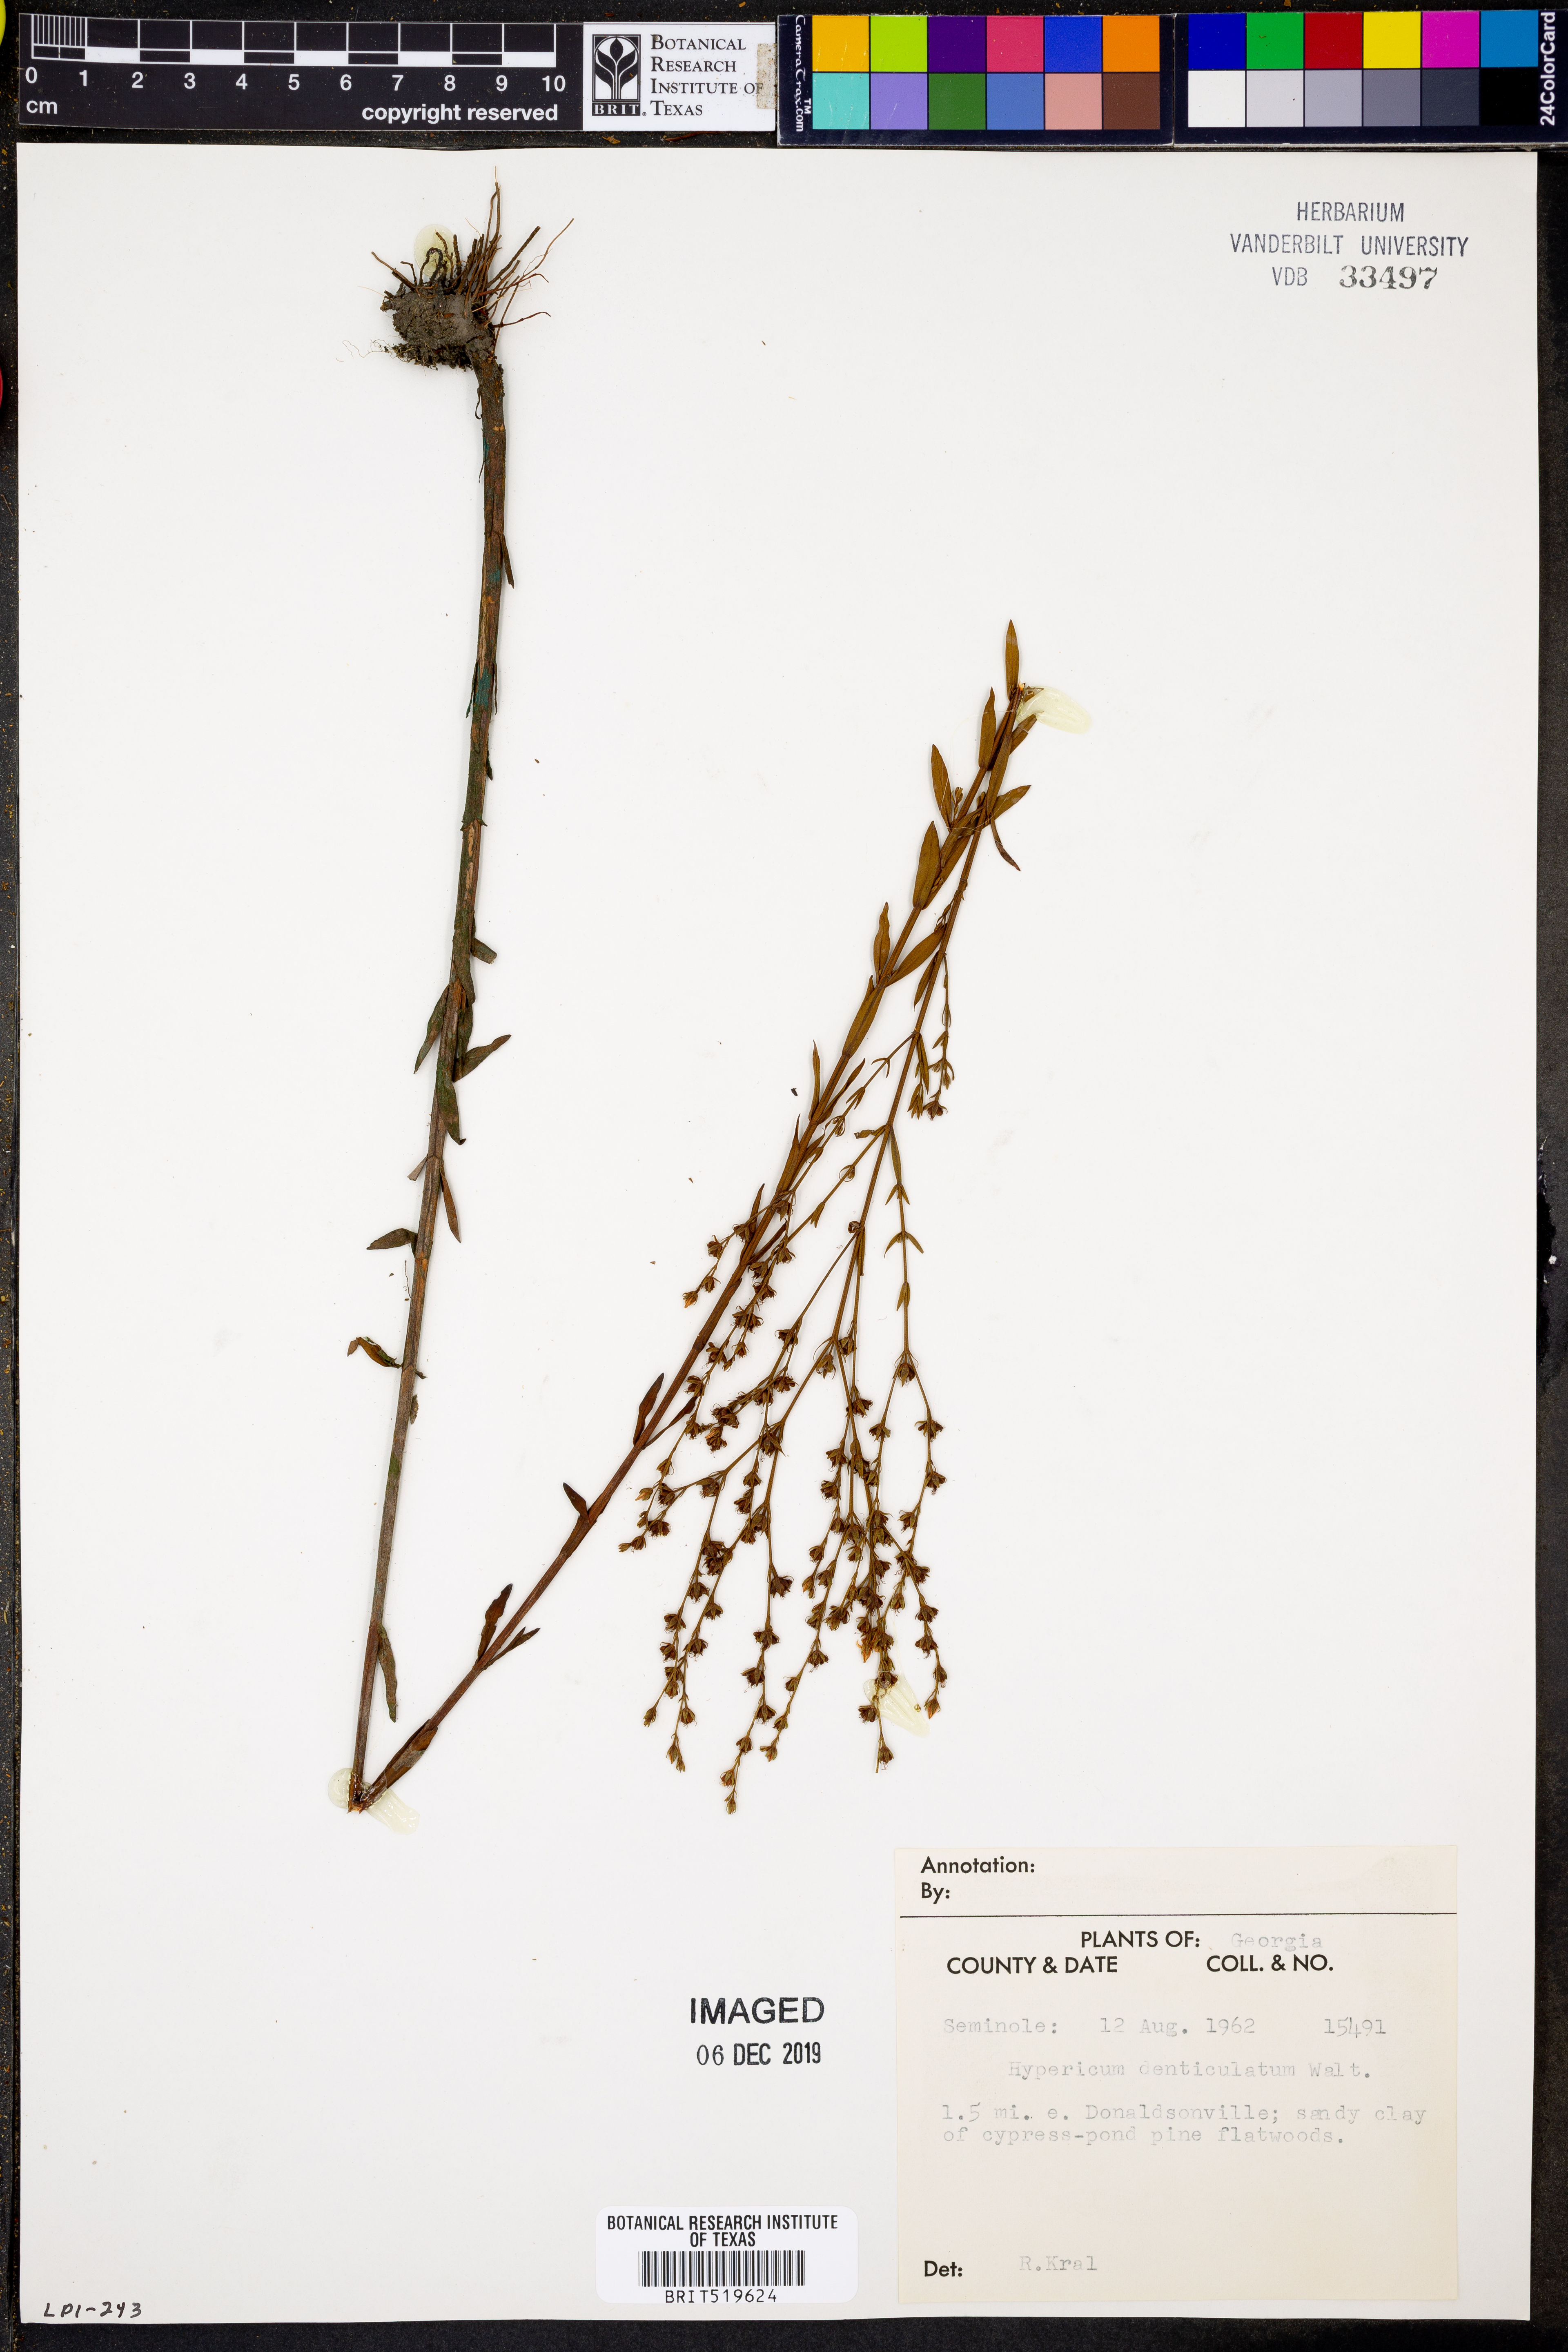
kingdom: Plantae
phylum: Tracheophyta
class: Magnoliopsida
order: Malpighiales
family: Hypericaceae
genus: Hypericum
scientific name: Hypericum denticulatum
